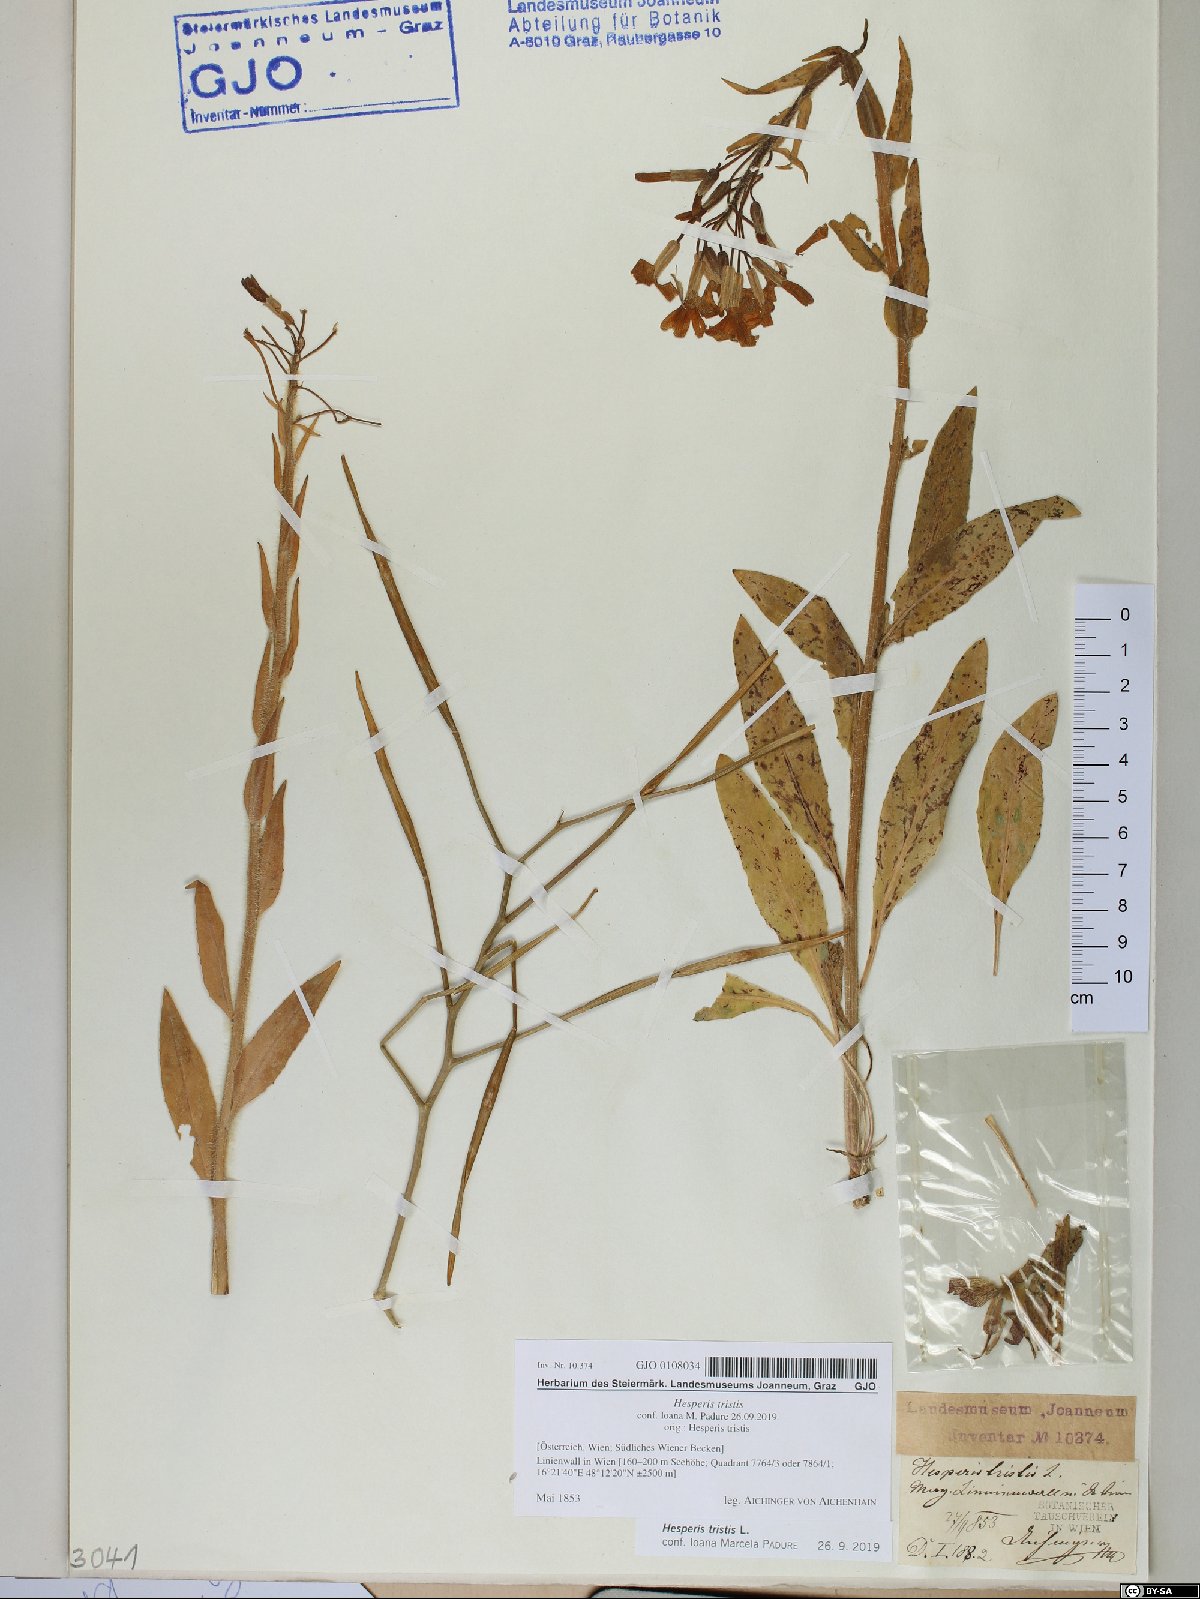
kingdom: Plantae
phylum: Tracheophyta
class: Magnoliopsida
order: Brassicales
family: Brassicaceae
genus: Hesperis
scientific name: Hesperis tristis
